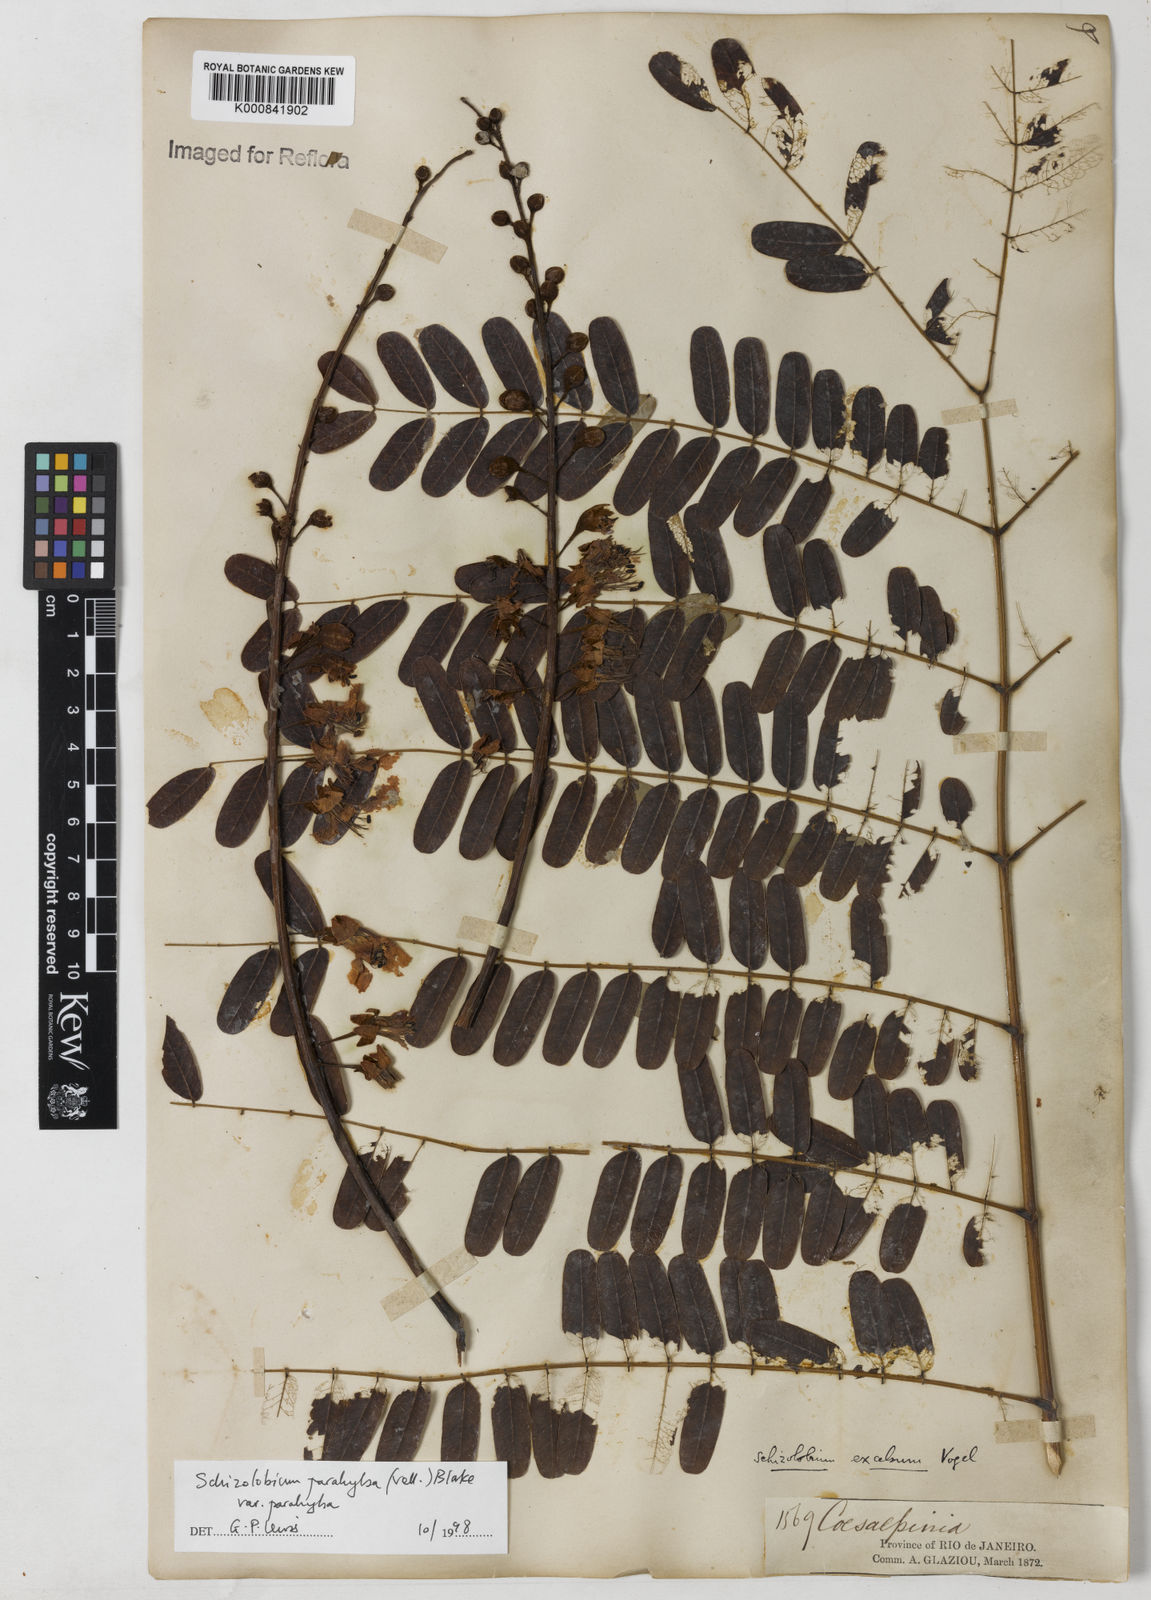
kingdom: Plantae
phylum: Tracheophyta
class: Magnoliopsida
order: Fabales
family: Fabaceae
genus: Schizolobium
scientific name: Schizolobium parahyba
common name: Brazilian firetree
